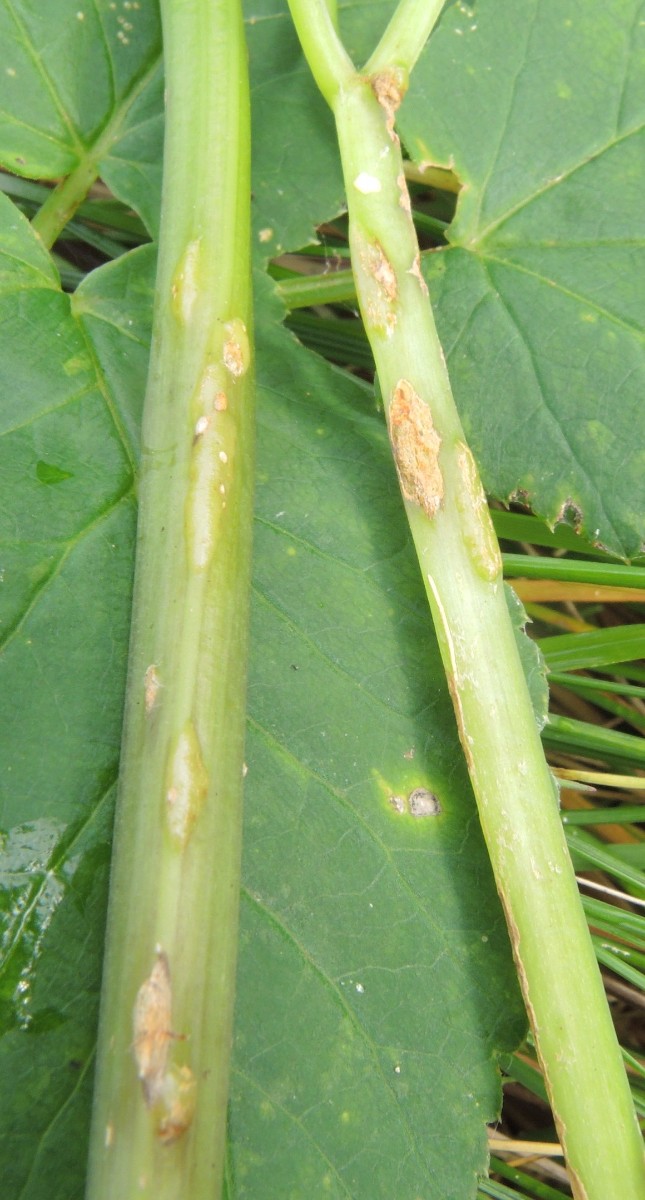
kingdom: Fungi
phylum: Ascomycota
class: Taphrinomycetes
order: Taphrinales
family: Taphrinaceae
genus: Protomyces
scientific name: Protomyces macrosporus
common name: skvalderkål-vablesæk
